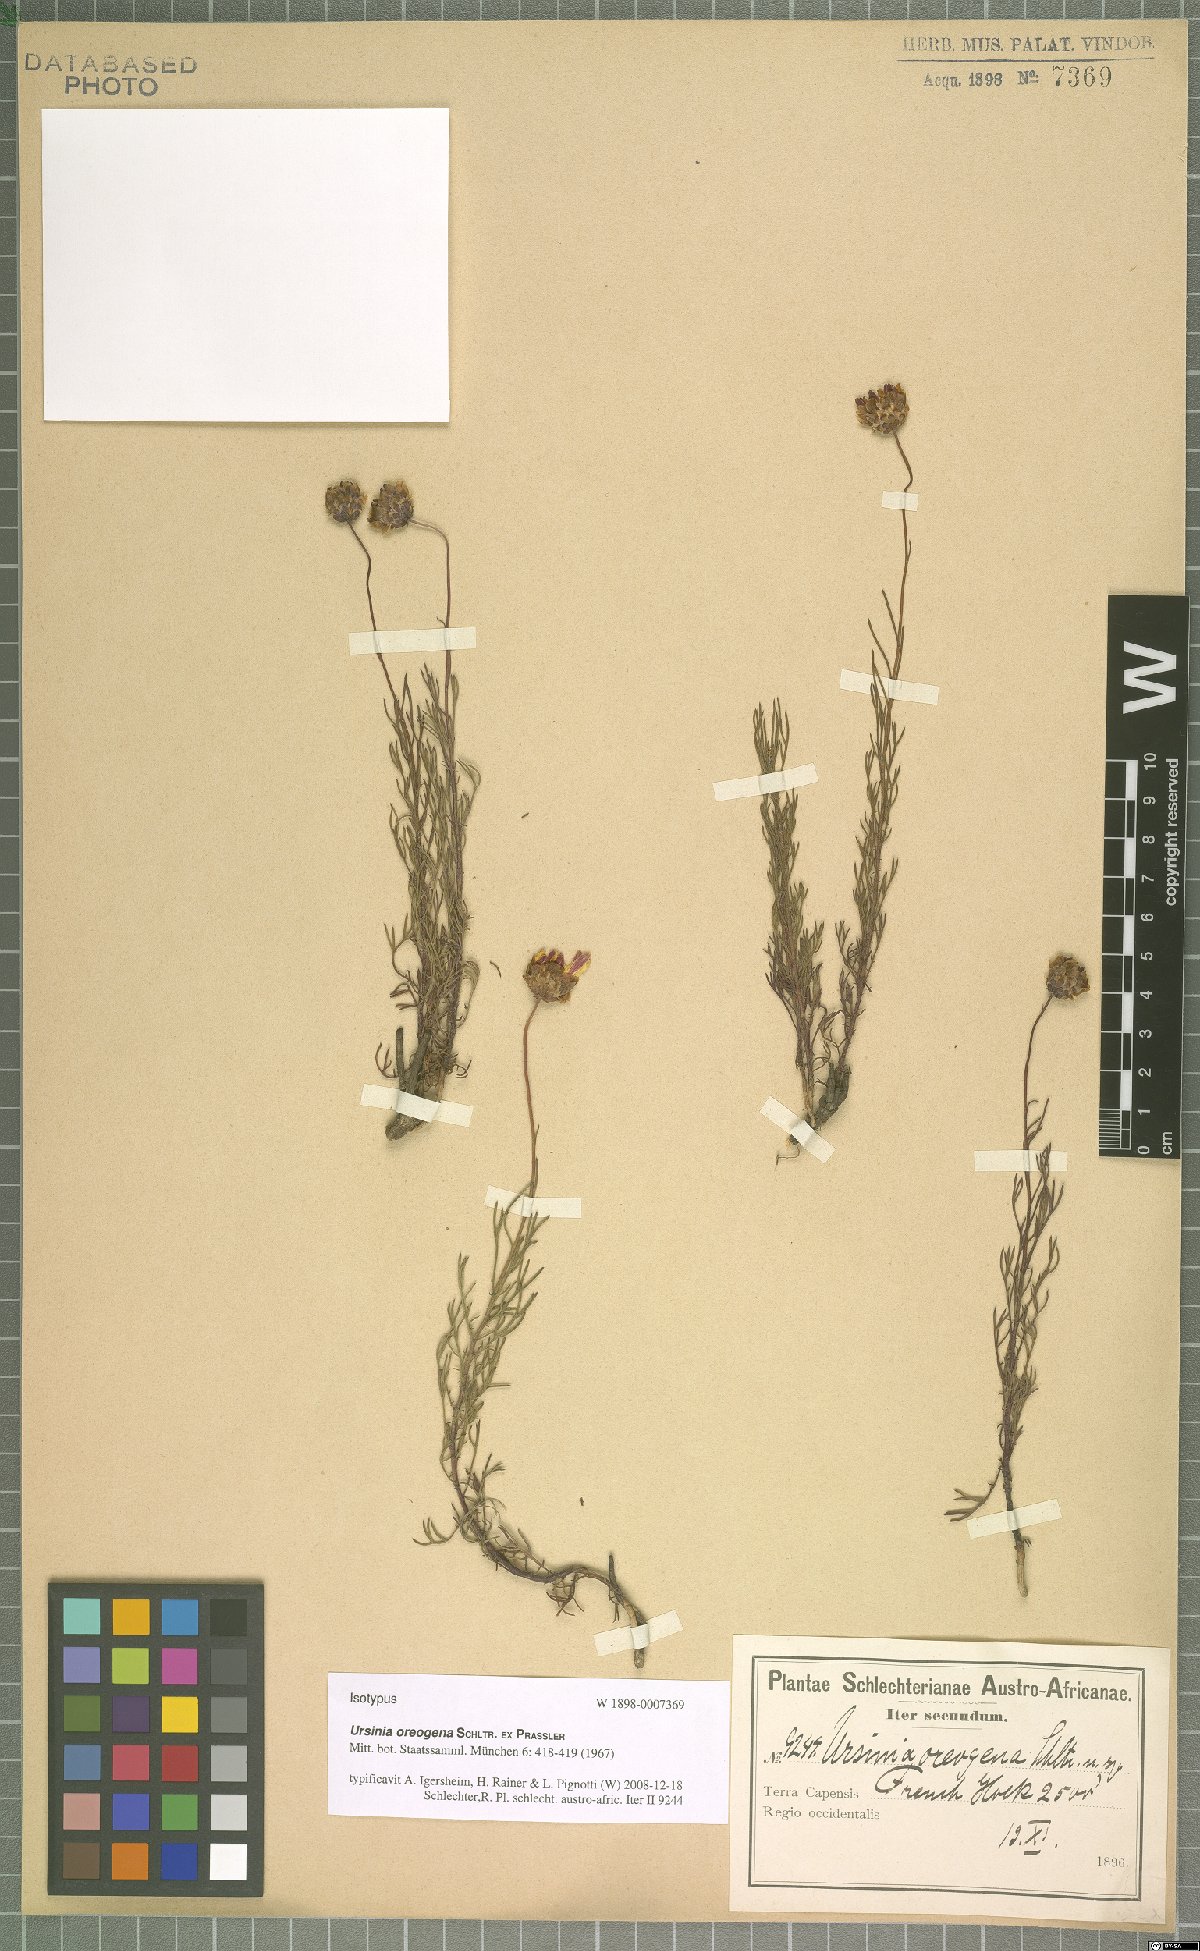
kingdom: Plantae
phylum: Tracheophyta
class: Magnoliopsida
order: Asterales
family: Asteraceae
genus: Ursinia
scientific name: Ursinia oreogena
